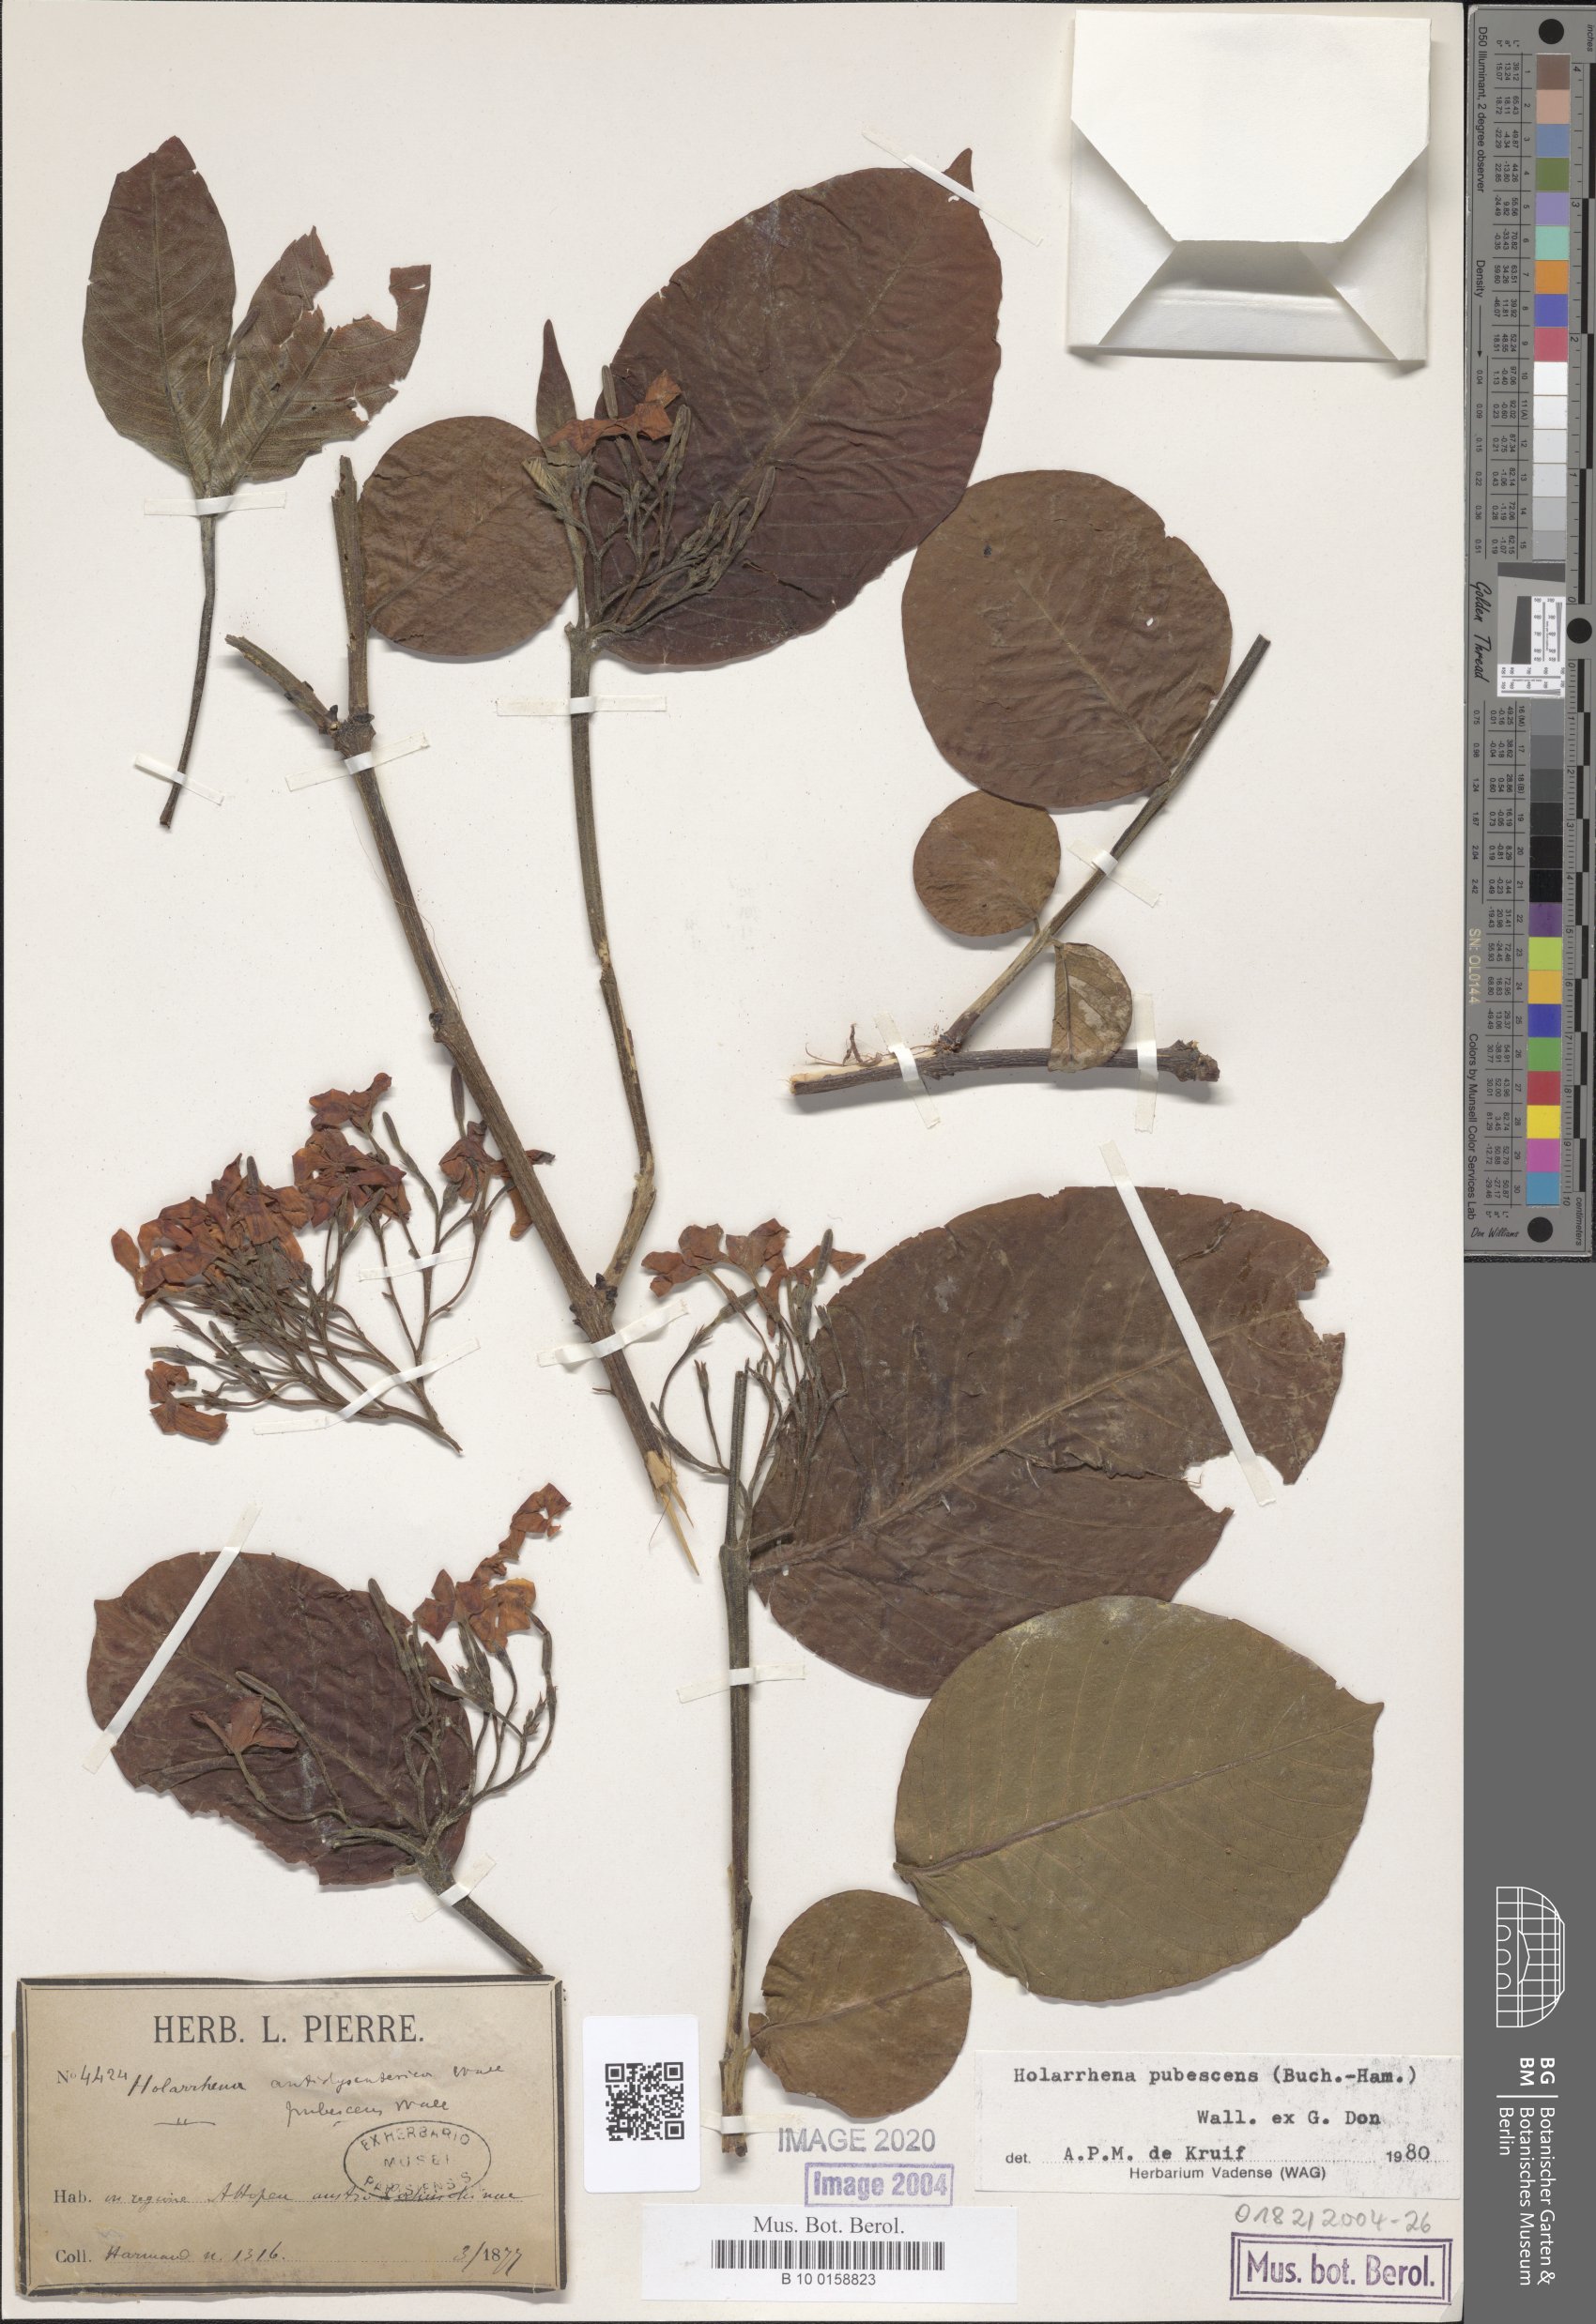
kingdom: Plantae
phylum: Tracheophyta
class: Magnoliopsida
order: Gentianales
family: Apocynaceae
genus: Holarrhena
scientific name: Holarrhena pubescens
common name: Bitter oleander
